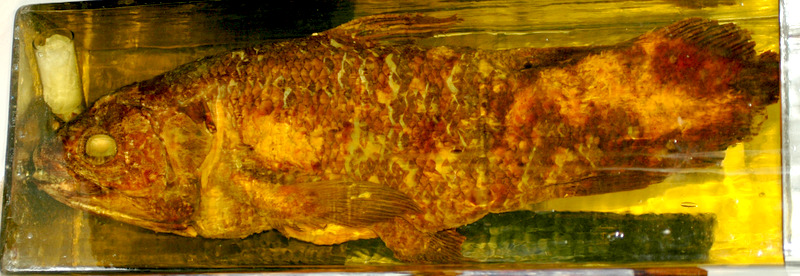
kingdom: Animalia
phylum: Chordata
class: Coelacanthi
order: Coelacanthiformes
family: Latimeriidae
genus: Latimeria
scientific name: Latimeria chalumnae
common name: Coelacanth
